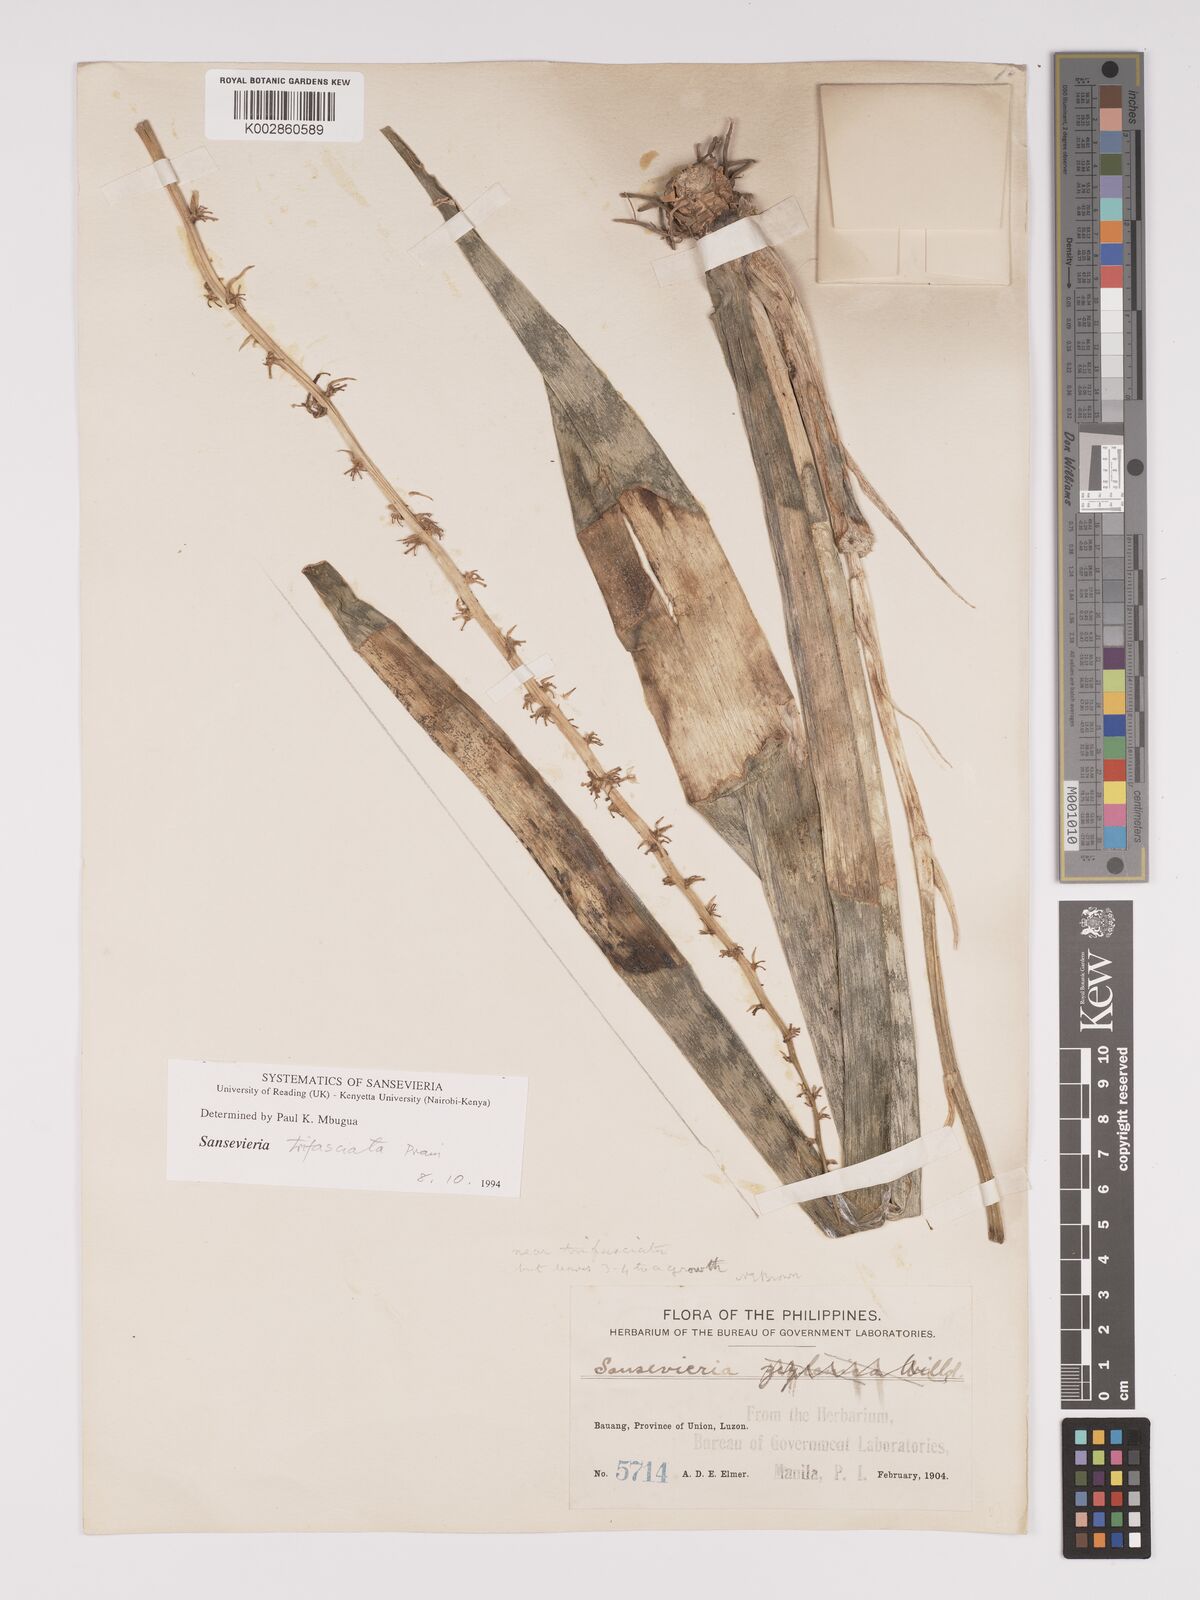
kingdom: Plantae
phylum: Tracheophyta
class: Liliopsida
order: Asparagales
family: Asparagaceae
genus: Dracaena
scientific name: Dracaena trifasciata
